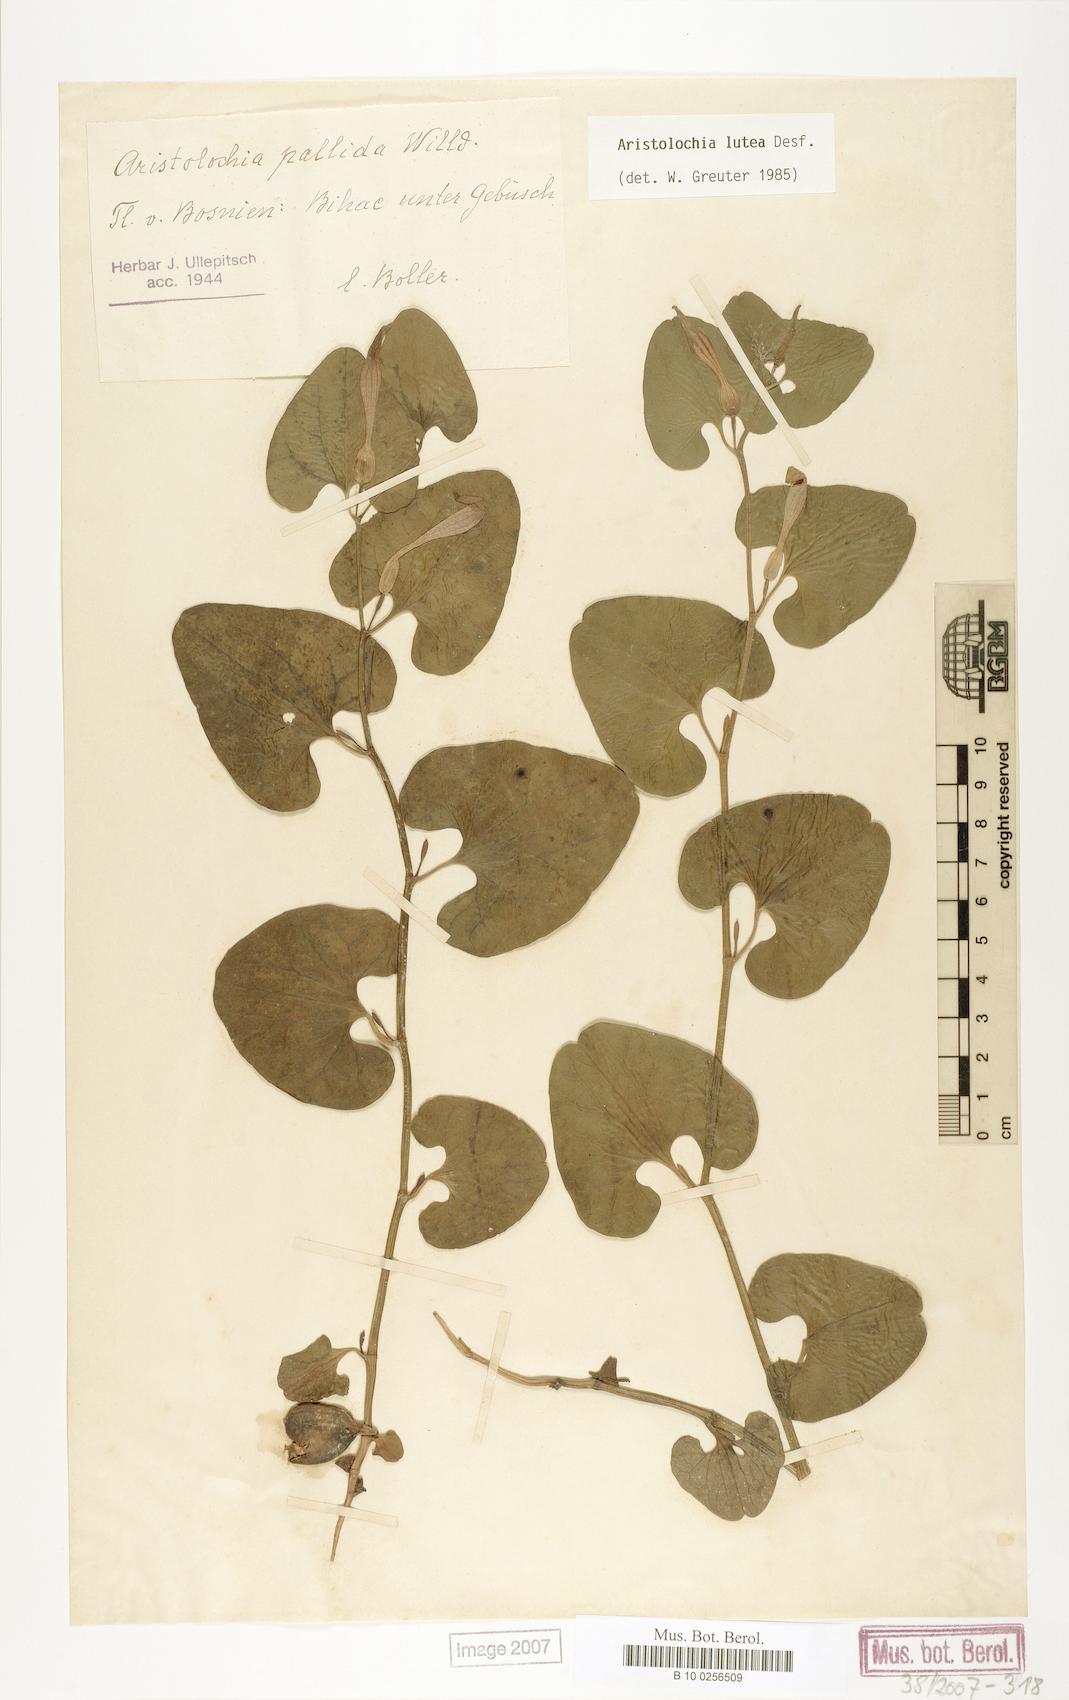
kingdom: Plantae
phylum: Tracheophyta
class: Magnoliopsida
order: Piperales
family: Aristolochiaceae
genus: Aristolochia
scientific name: Aristolochia lutea
